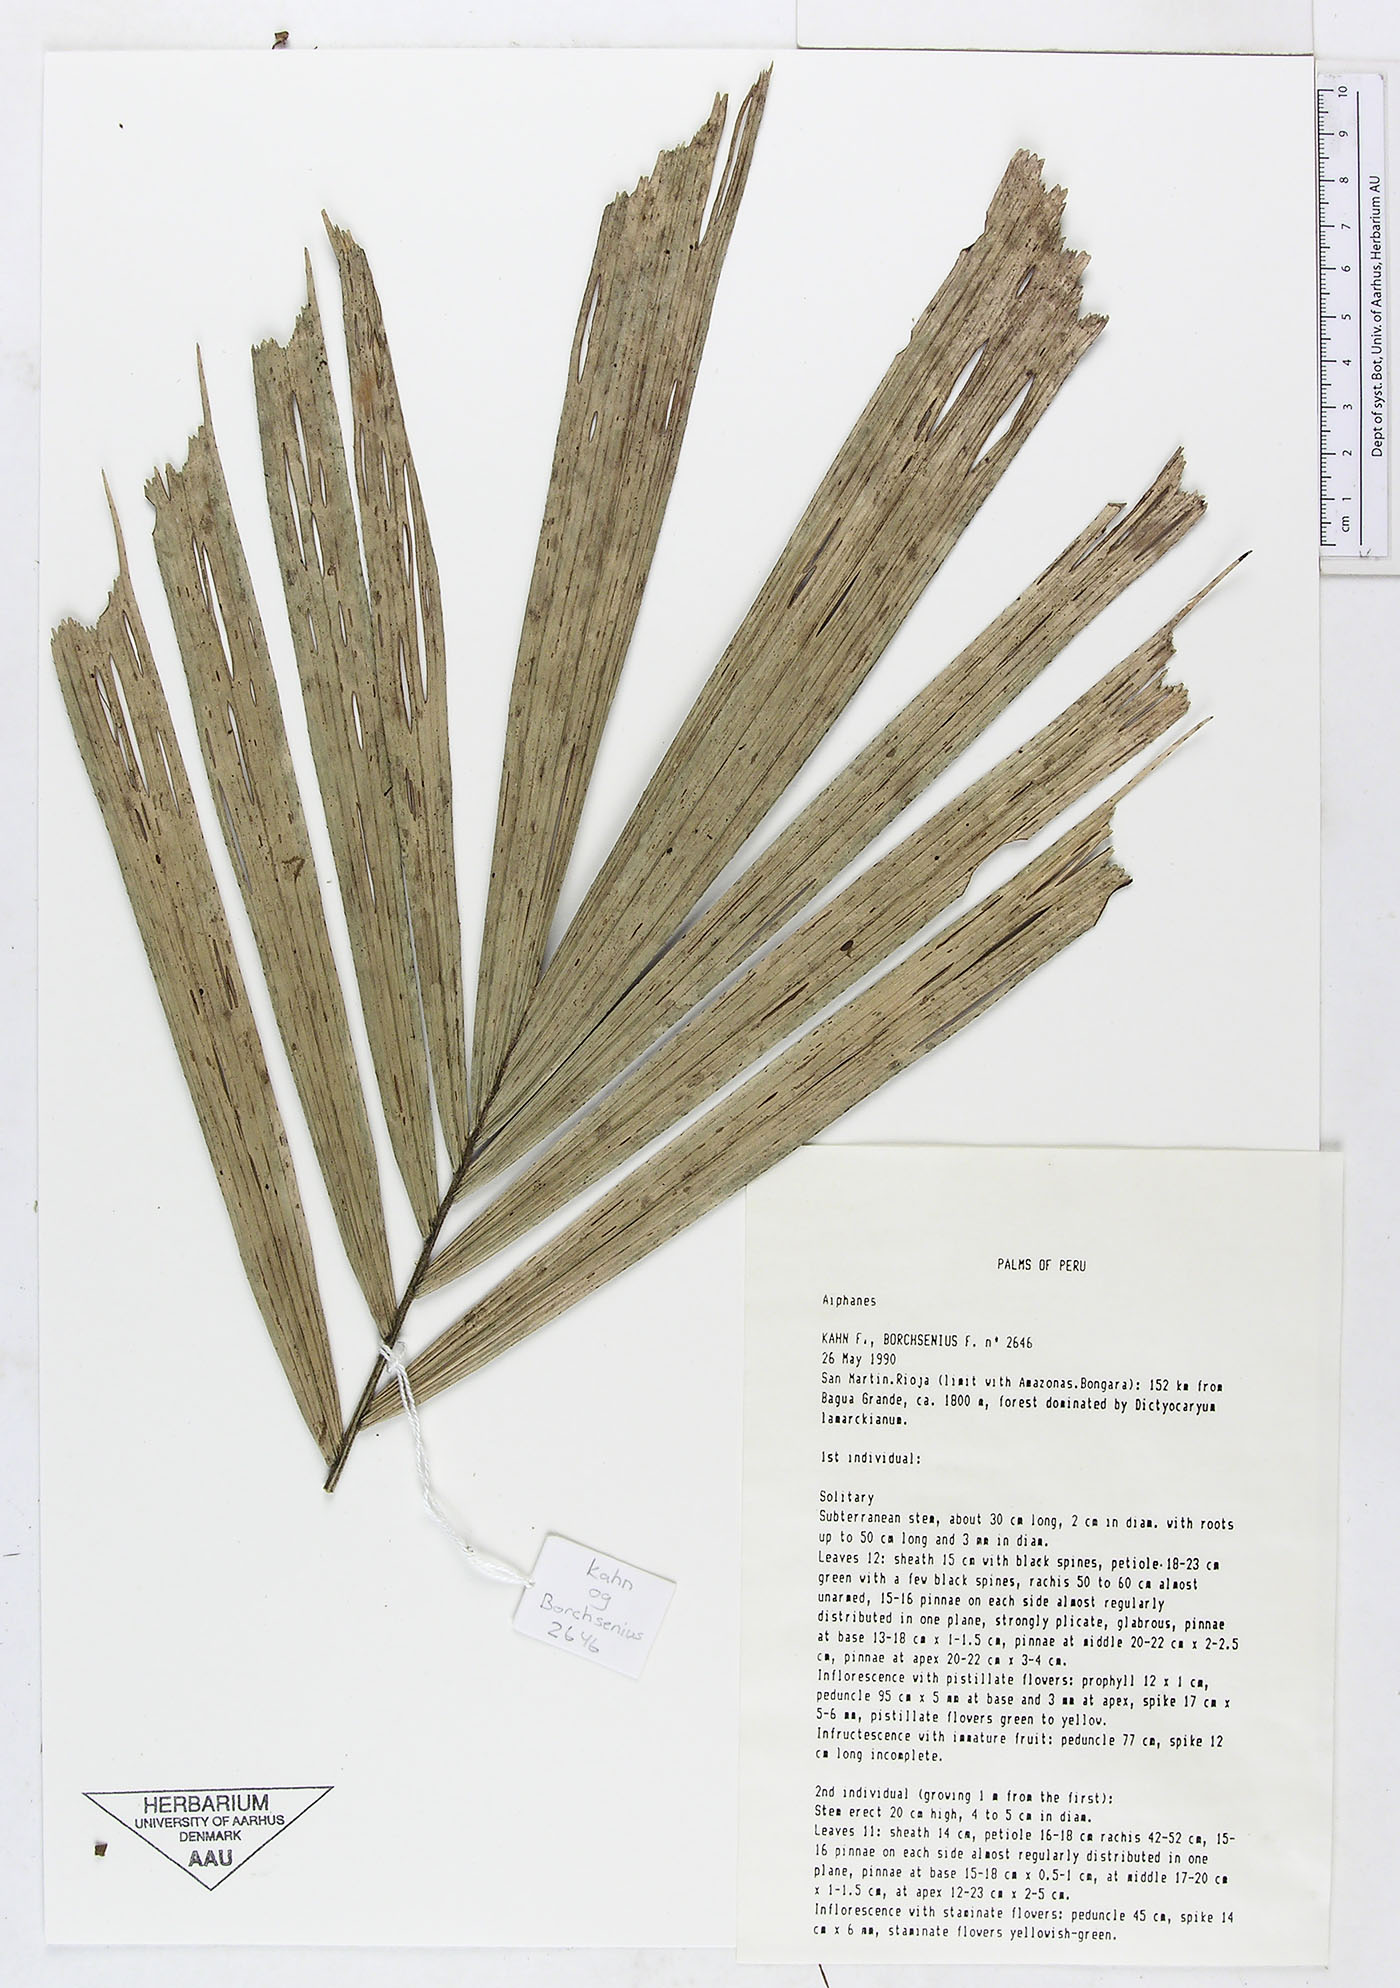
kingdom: Plantae
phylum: Tracheophyta
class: Liliopsida
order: Arecales
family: Arecaceae
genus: Aiphanes
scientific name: Aiphanes spicata
